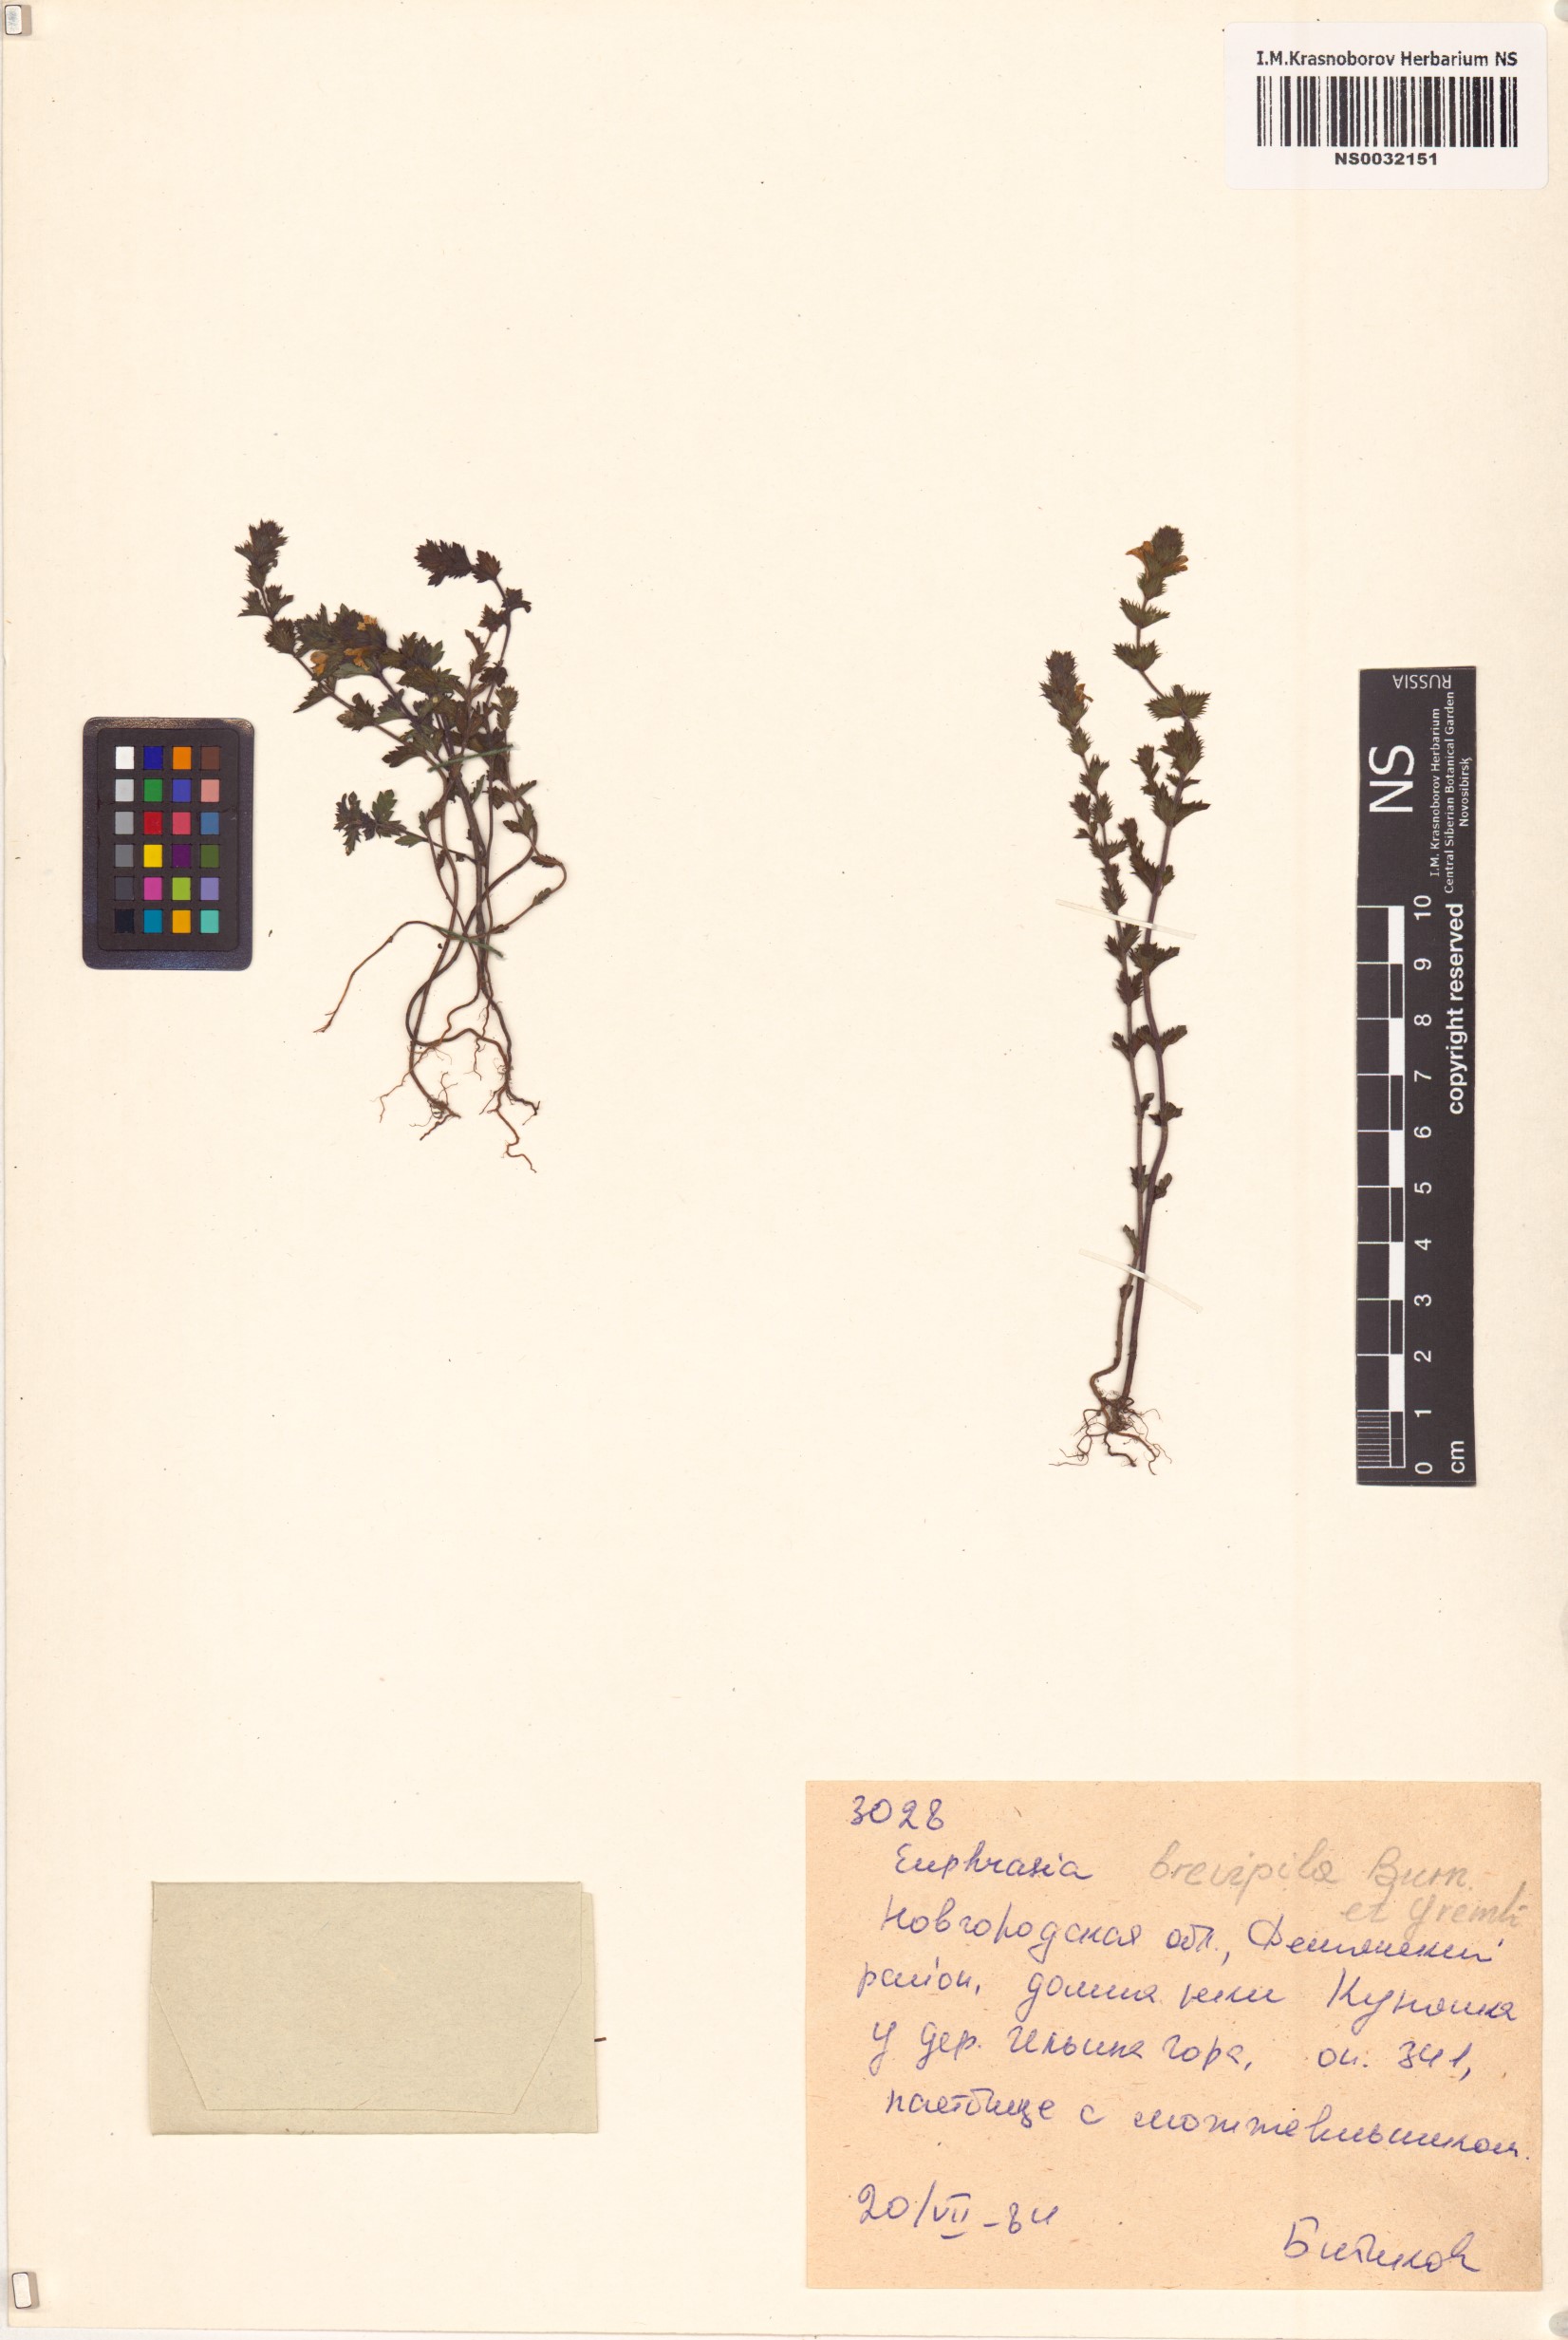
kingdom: Plantae
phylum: Tracheophyta
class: Magnoliopsida
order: Lamiales
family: Orobanchaceae
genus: Euphrasia
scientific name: Euphrasia vernalis
